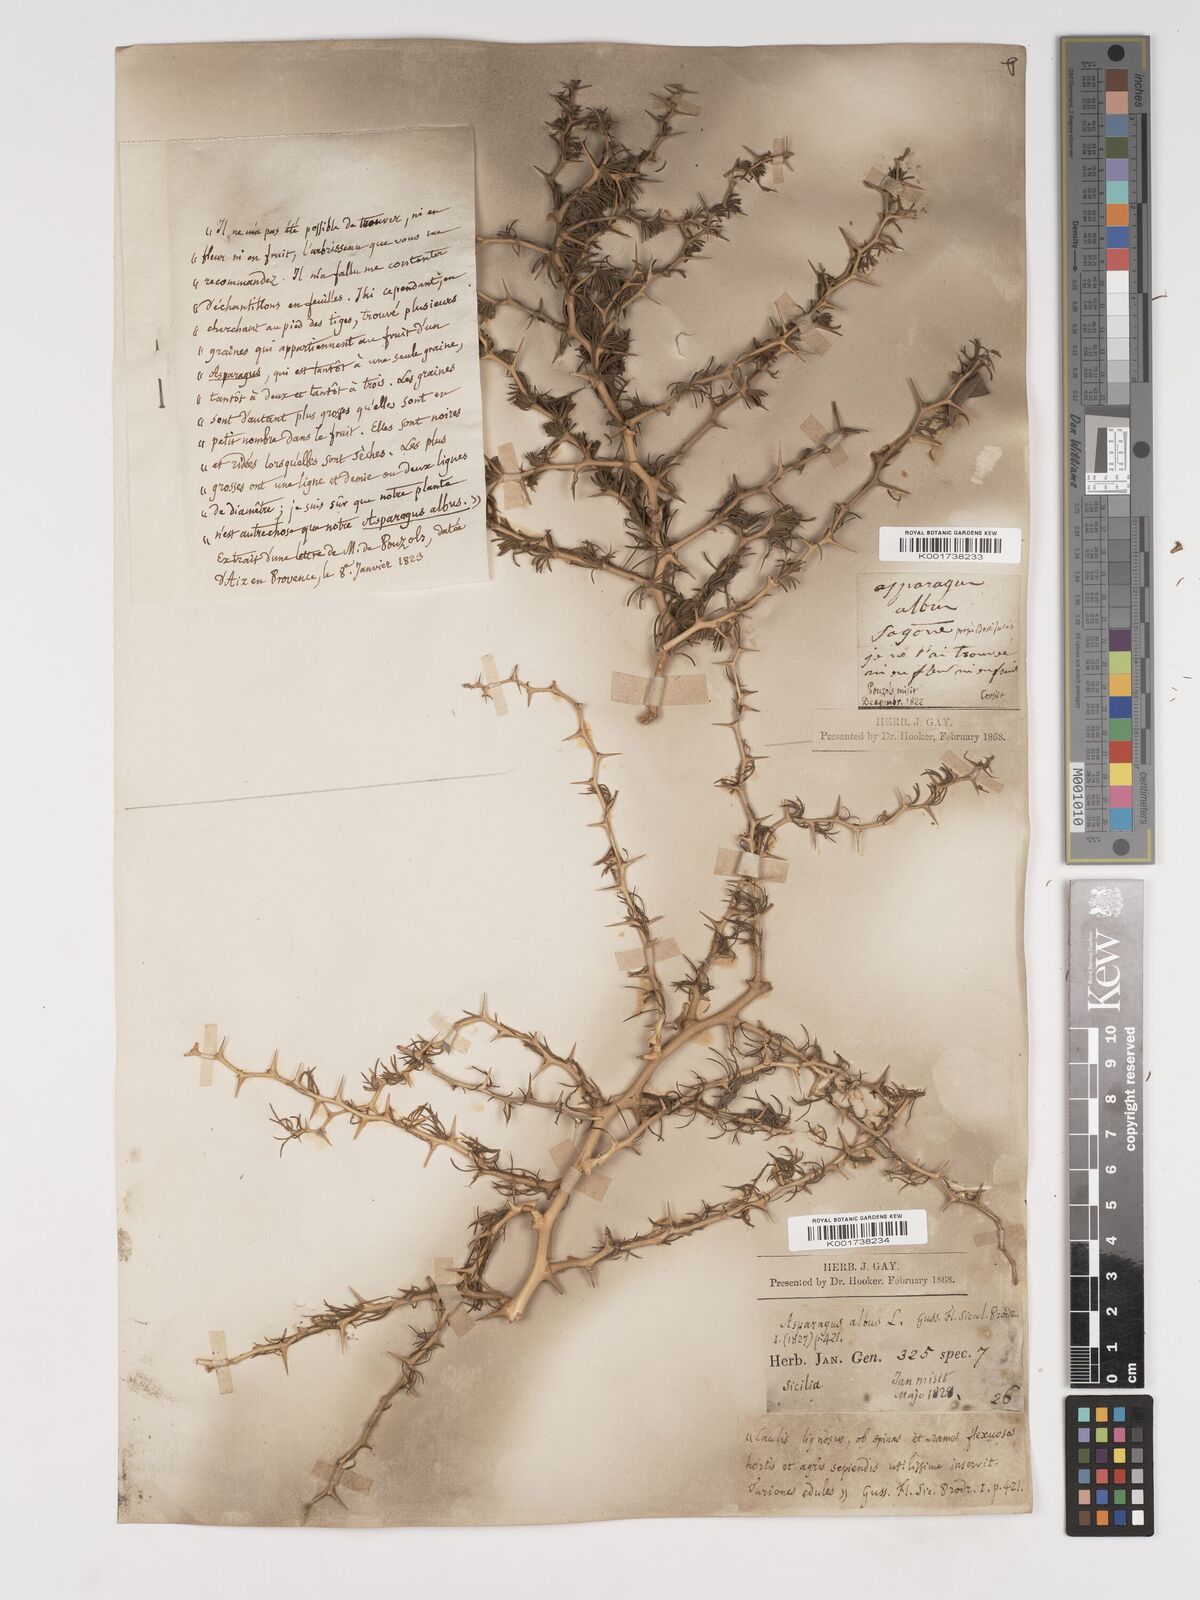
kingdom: Plantae
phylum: Tracheophyta
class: Liliopsida
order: Asparagales
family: Asparagaceae
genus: Asparagus
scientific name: Asparagus albus
